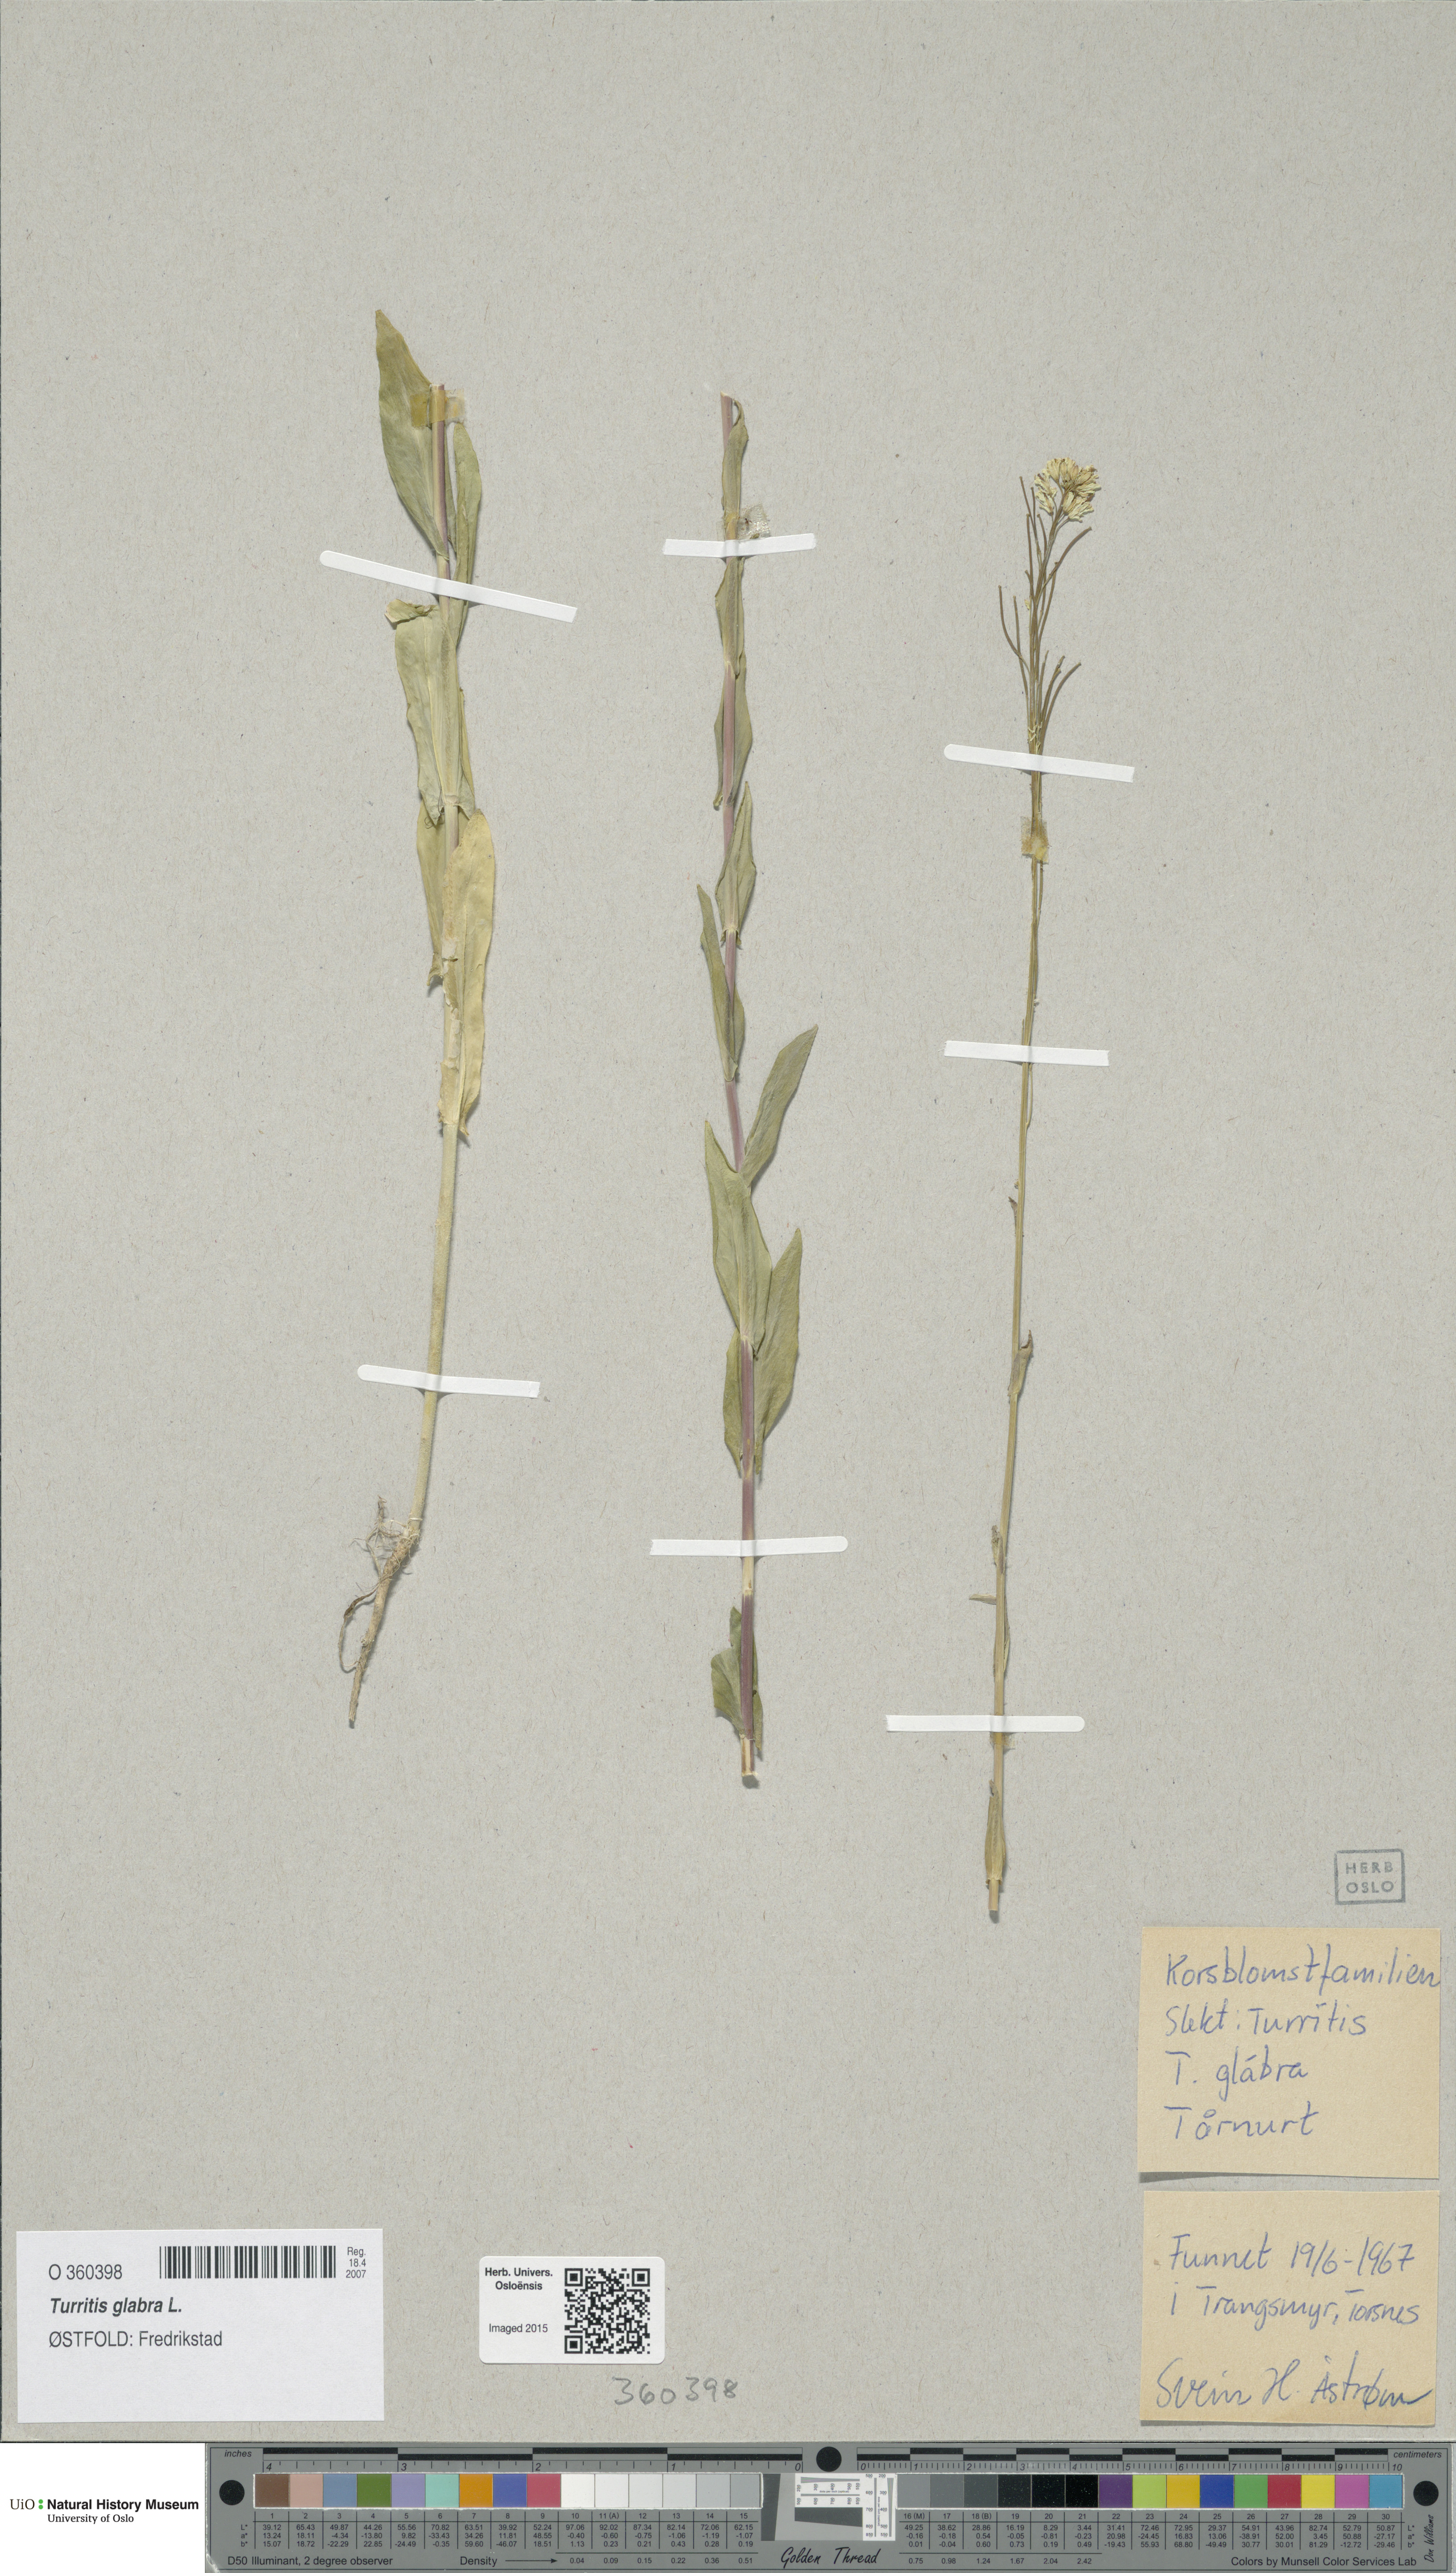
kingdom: Plantae
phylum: Tracheophyta
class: Magnoliopsida
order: Brassicales
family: Brassicaceae
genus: Turritis
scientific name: Turritis glabra
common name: Tower rockcress
